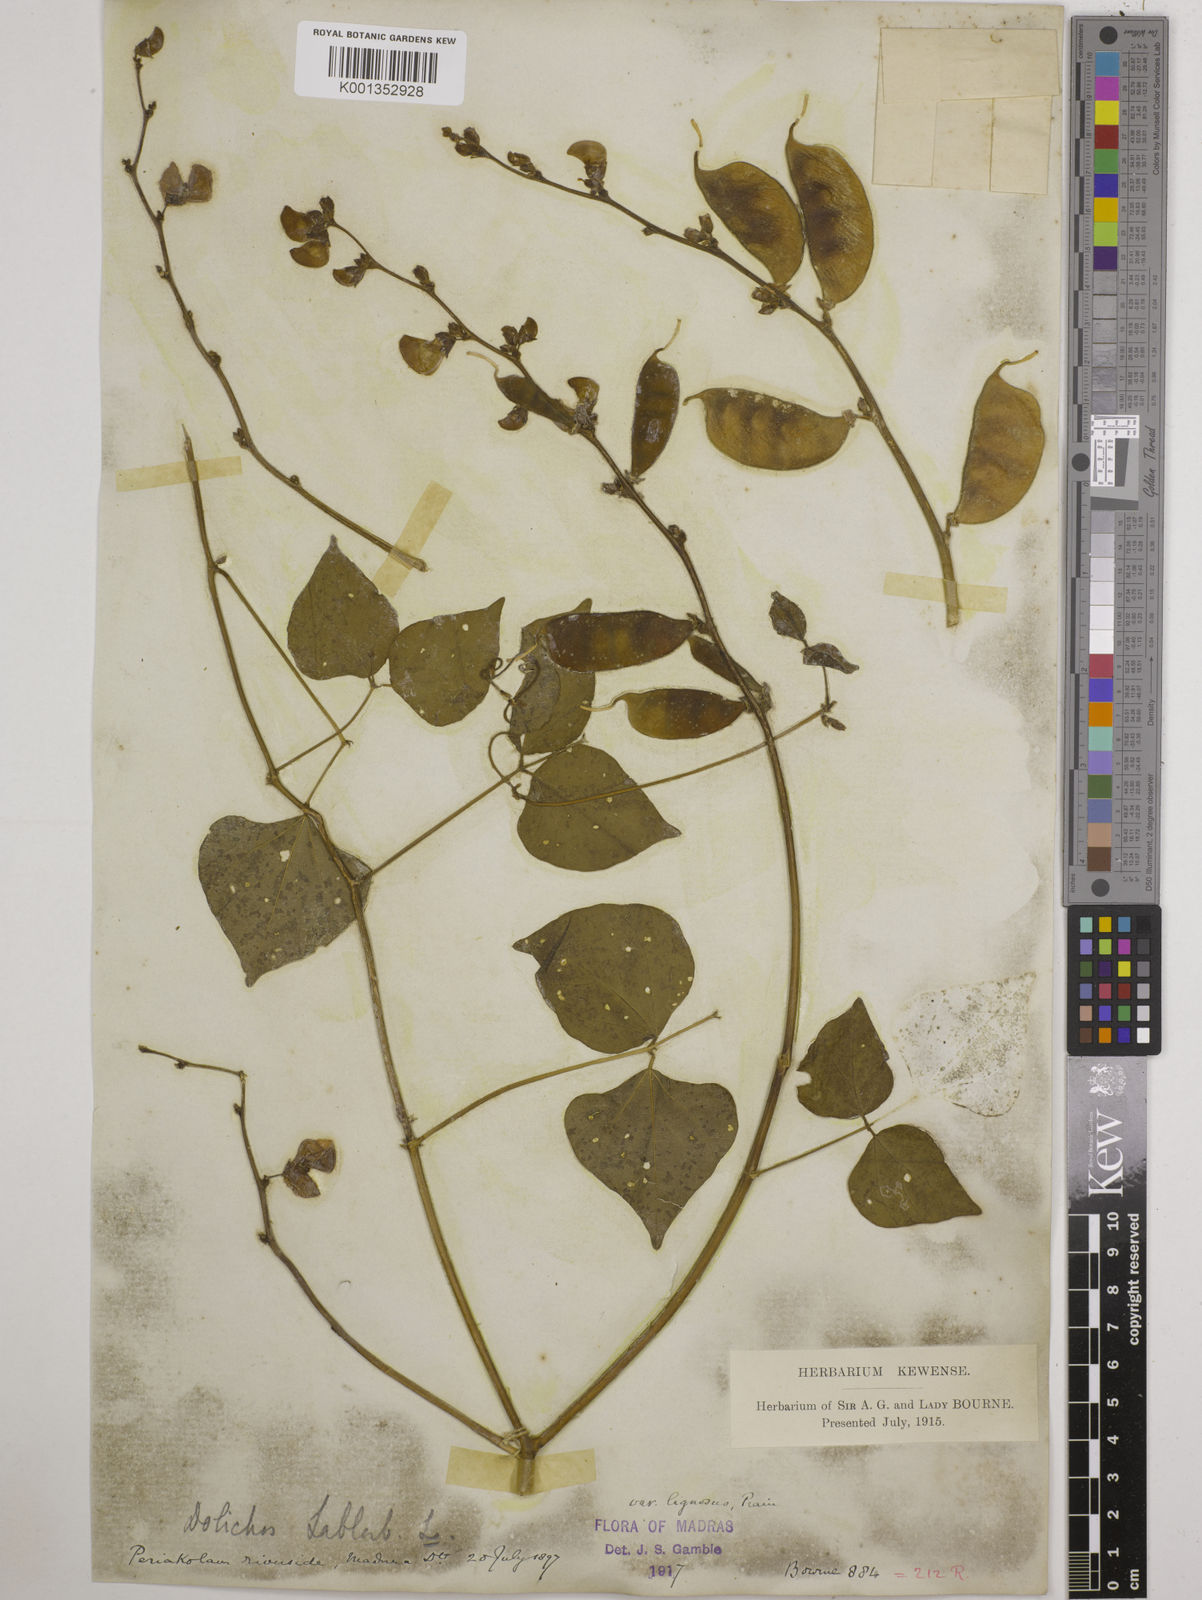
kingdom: Plantae
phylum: Tracheophyta
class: Magnoliopsida
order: Fabales
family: Fabaceae
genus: Lablab
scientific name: Lablab purpureus
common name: Lablab-bean
